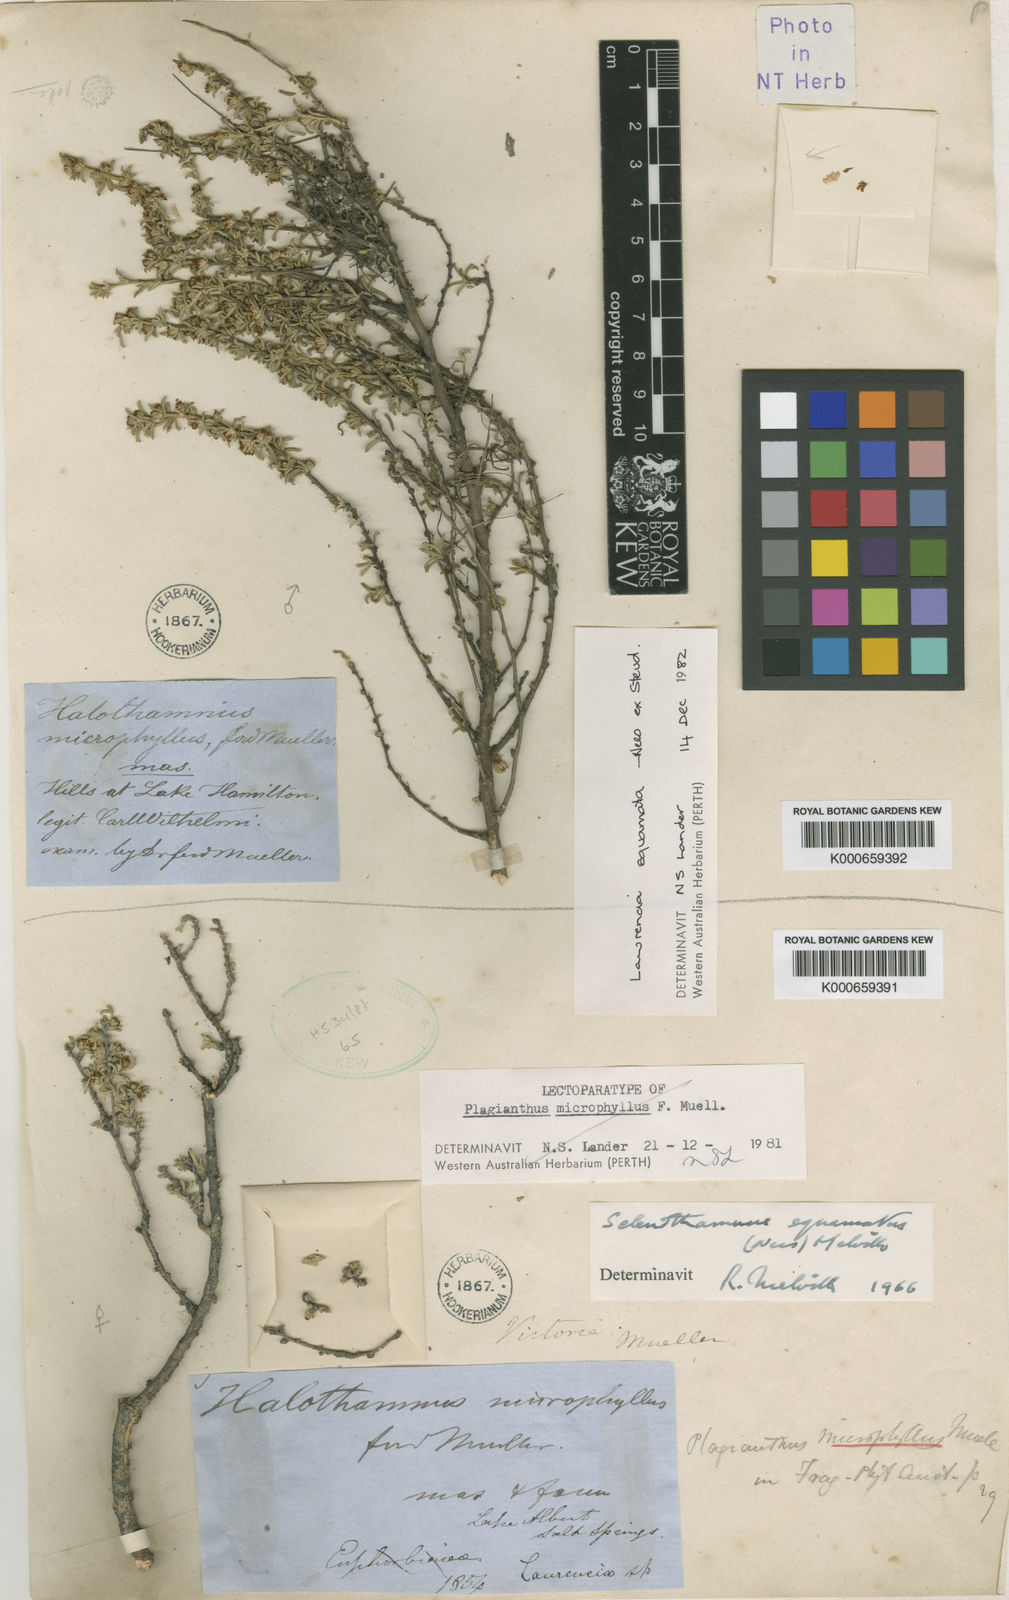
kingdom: Plantae
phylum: Tracheophyta
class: Magnoliopsida
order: Malvales
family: Malvaceae
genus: Lawrencia
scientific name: Lawrencia squamata
